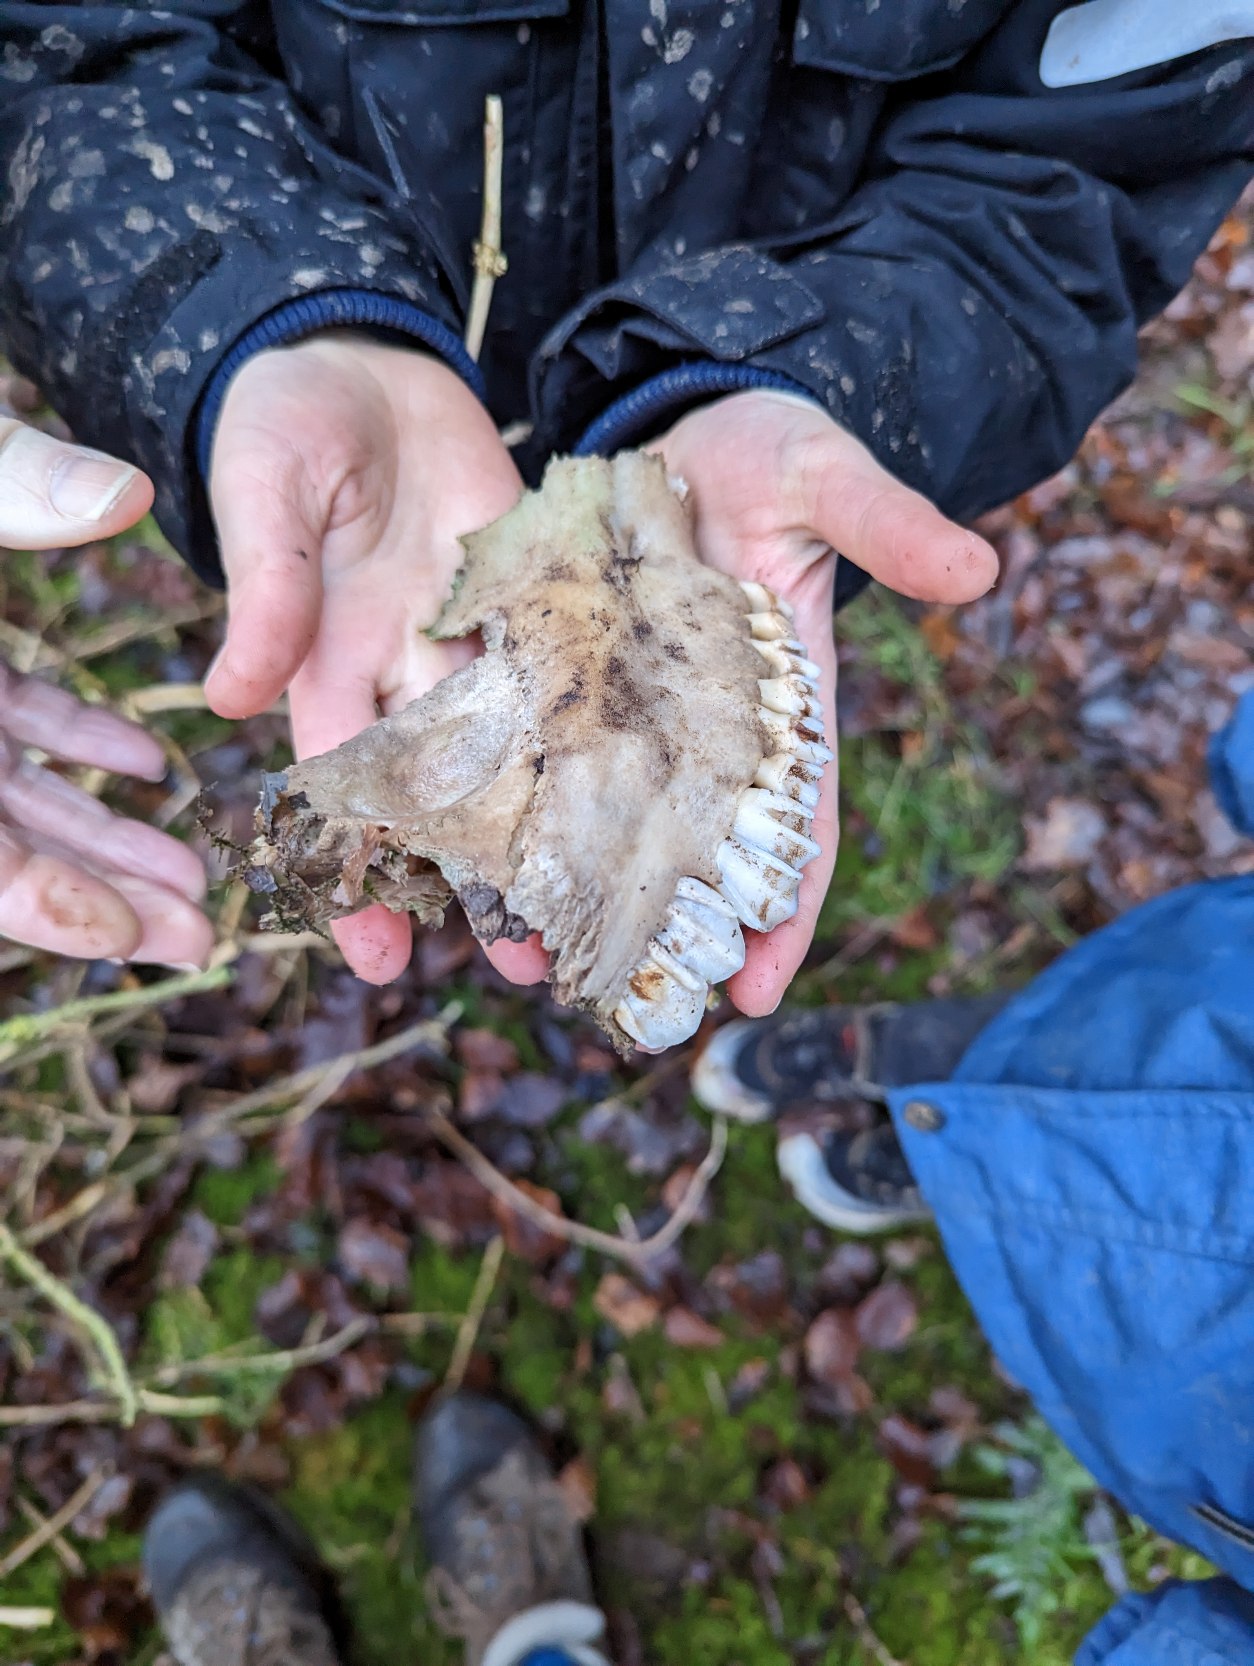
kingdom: Animalia
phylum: Chordata
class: Mammalia
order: Artiodactyla
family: Cervidae
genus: Capreolus
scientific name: Capreolus capreolus
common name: Rådyr
